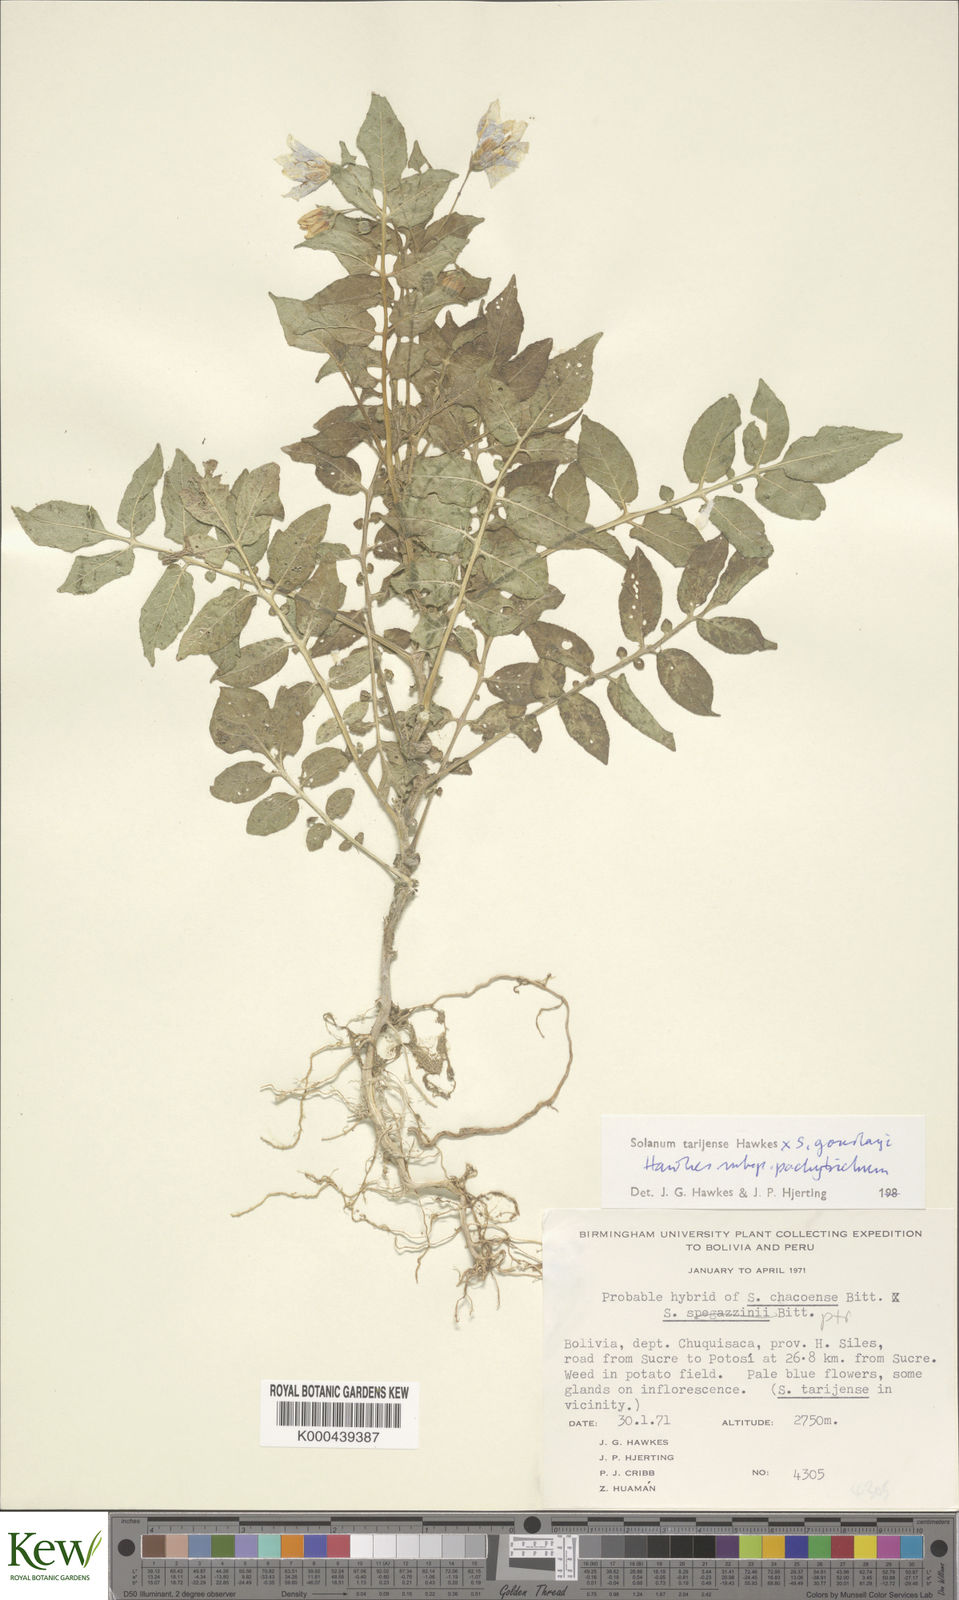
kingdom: Plantae
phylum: Tracheophyta
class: Magnoliopsida
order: Solanales
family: Solanaceae
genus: Solanum
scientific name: Solanum tarijense
